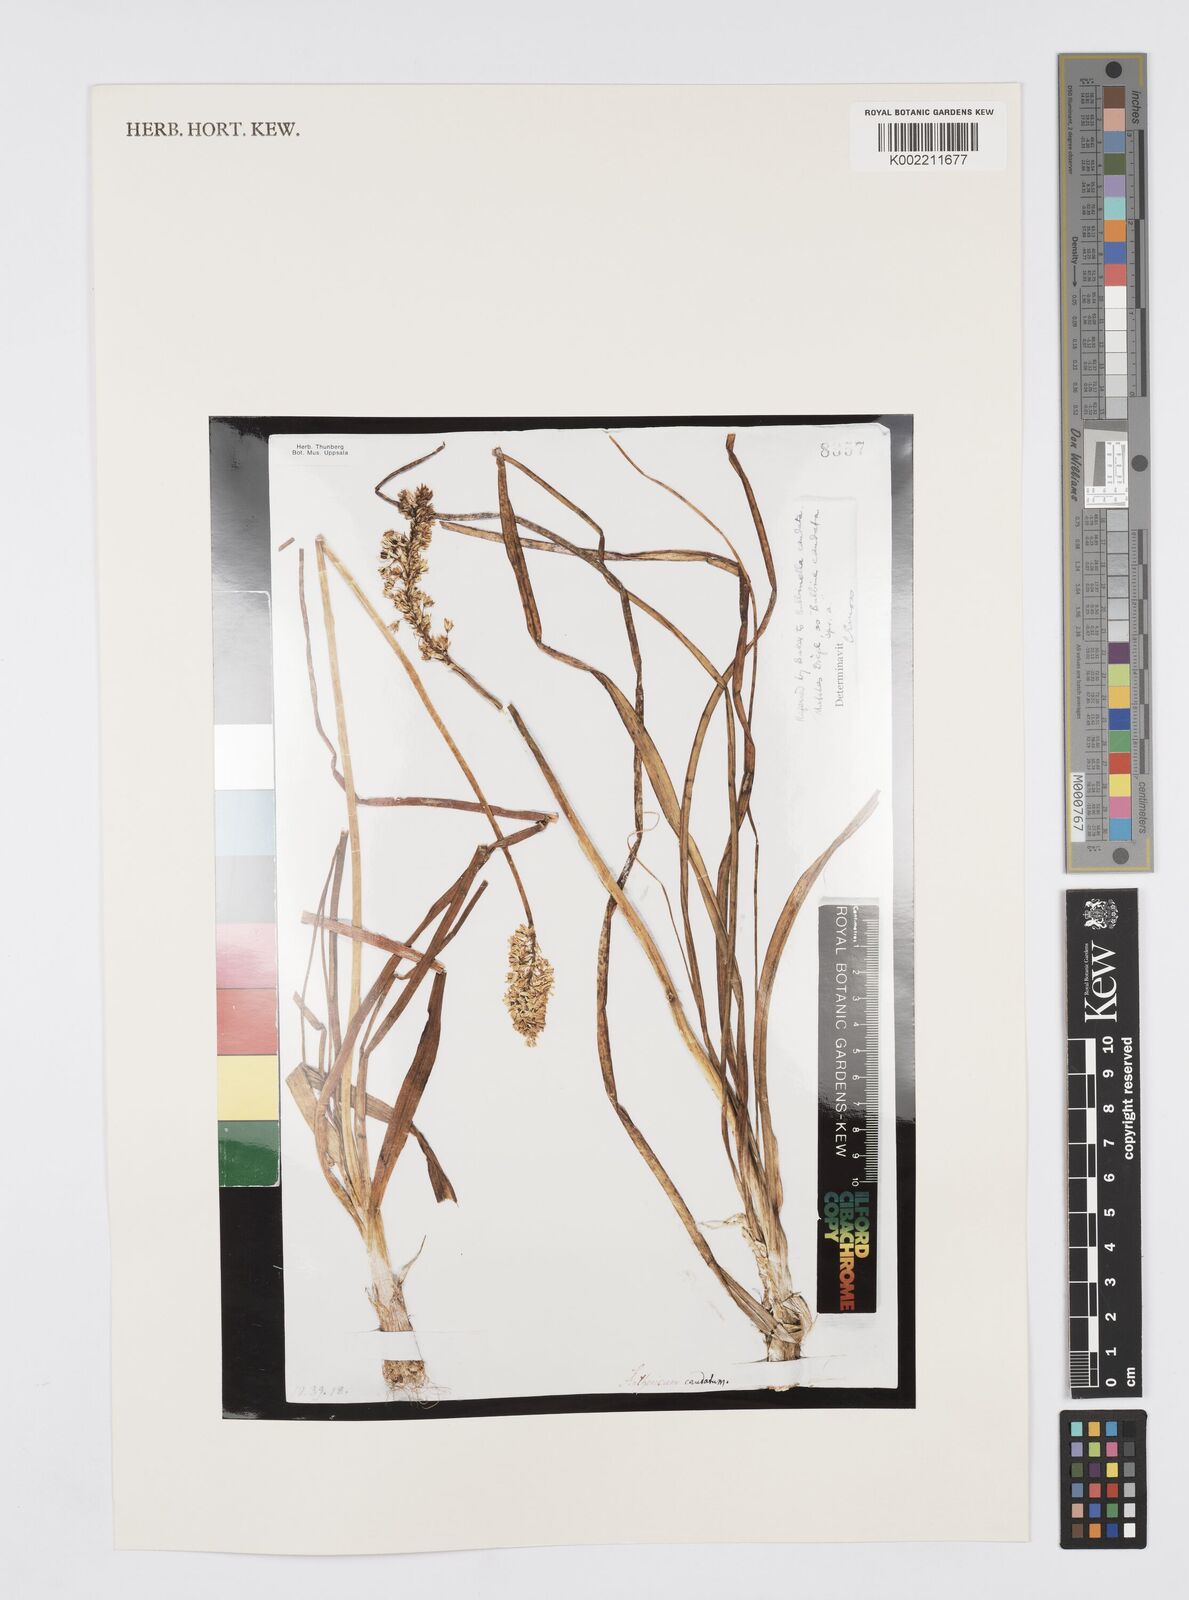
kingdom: Plantae
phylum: Tracheophyta
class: Liliopsida
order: Asparagales
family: Asphodelaceae
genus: Bulbinella
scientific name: Bulbinella cauda-felis
